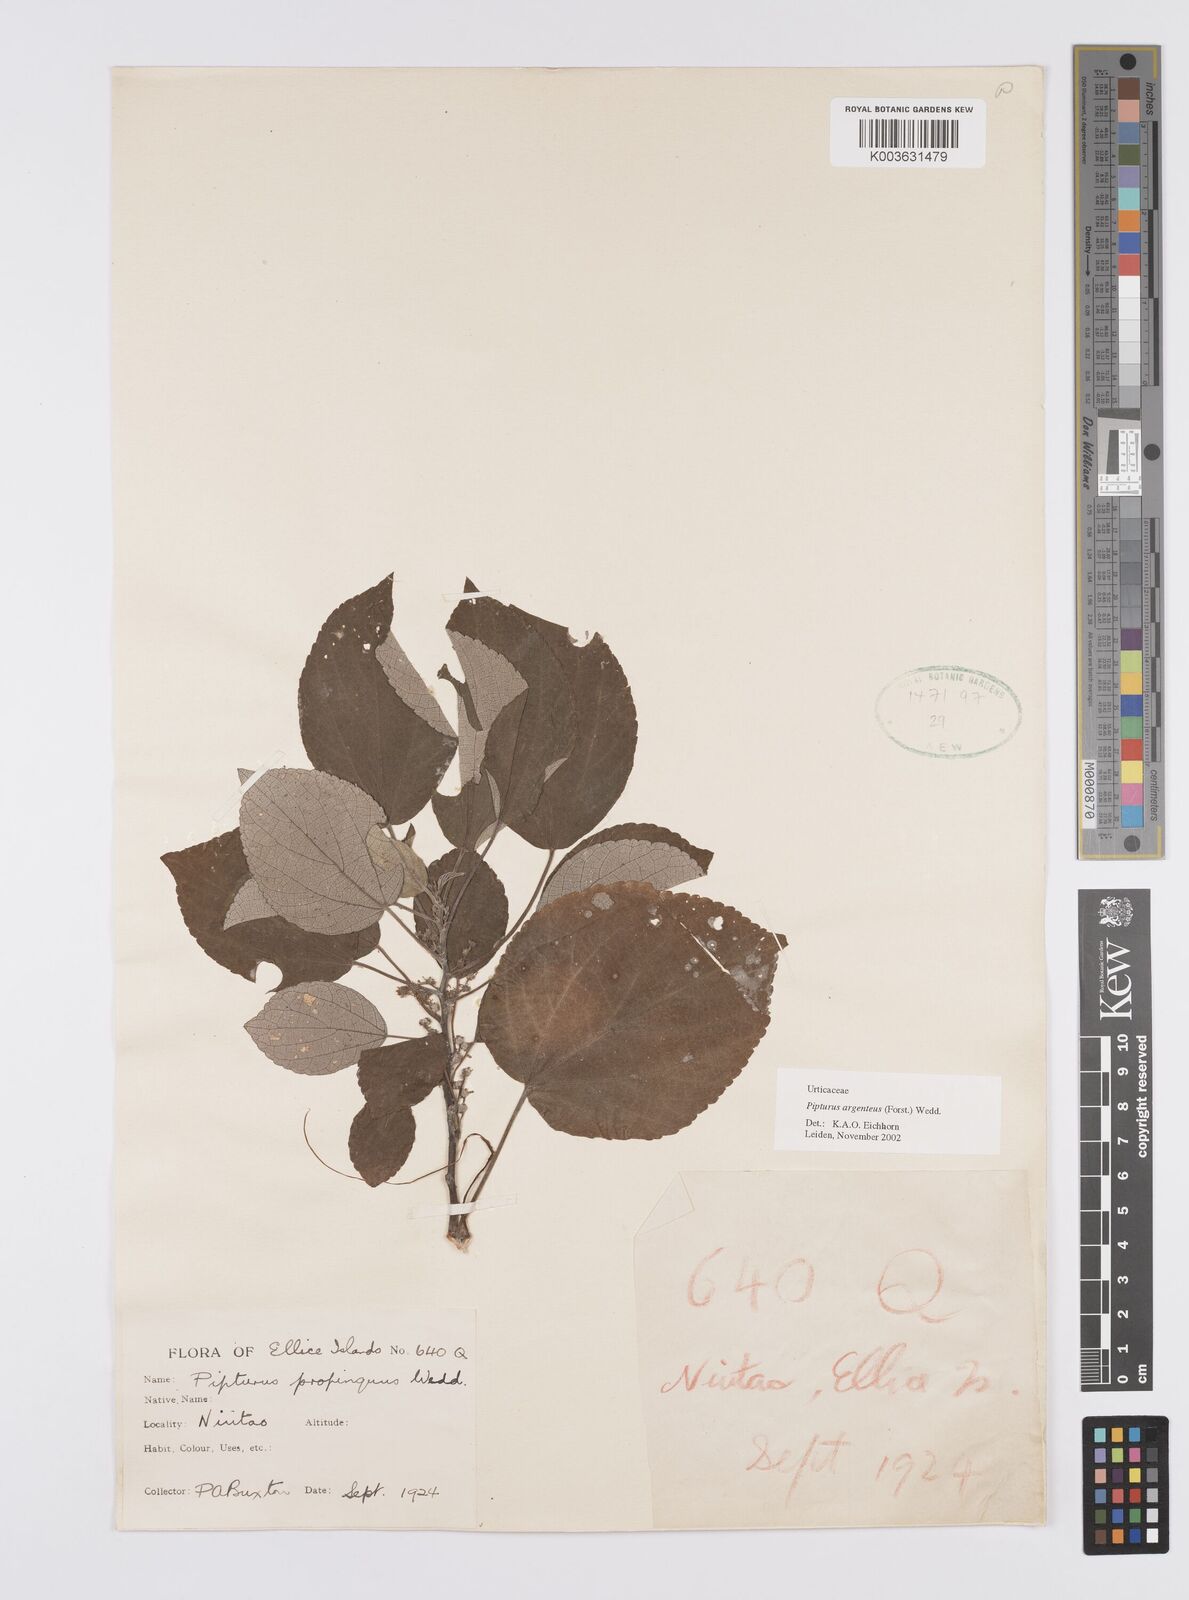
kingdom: Plantae
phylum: Tracheophyta
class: Magnoliopsida
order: Rosales
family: Urticaceae
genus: Pipturus
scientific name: Pipturus argenteus
